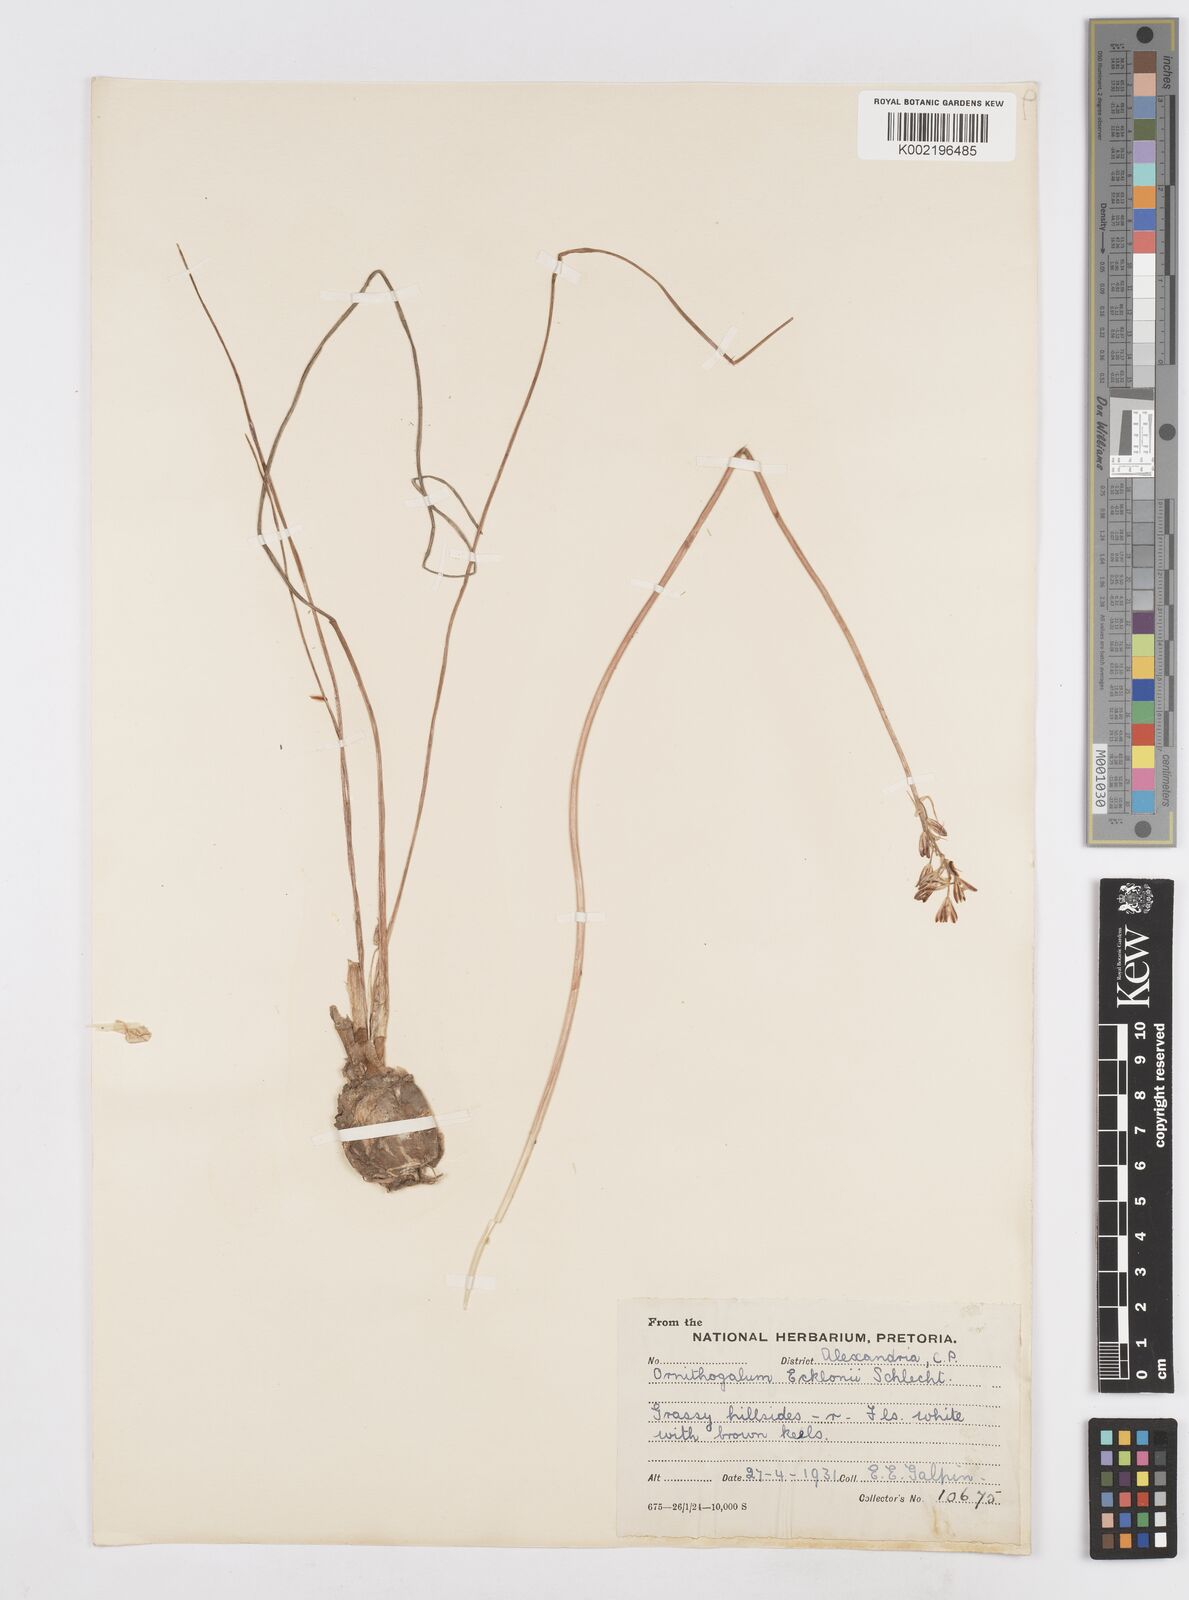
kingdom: Plantae
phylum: Tracheophyta
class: Liliopsida
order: Asparagales
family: Asparagaceae
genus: Albuca
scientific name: Albuca virens
